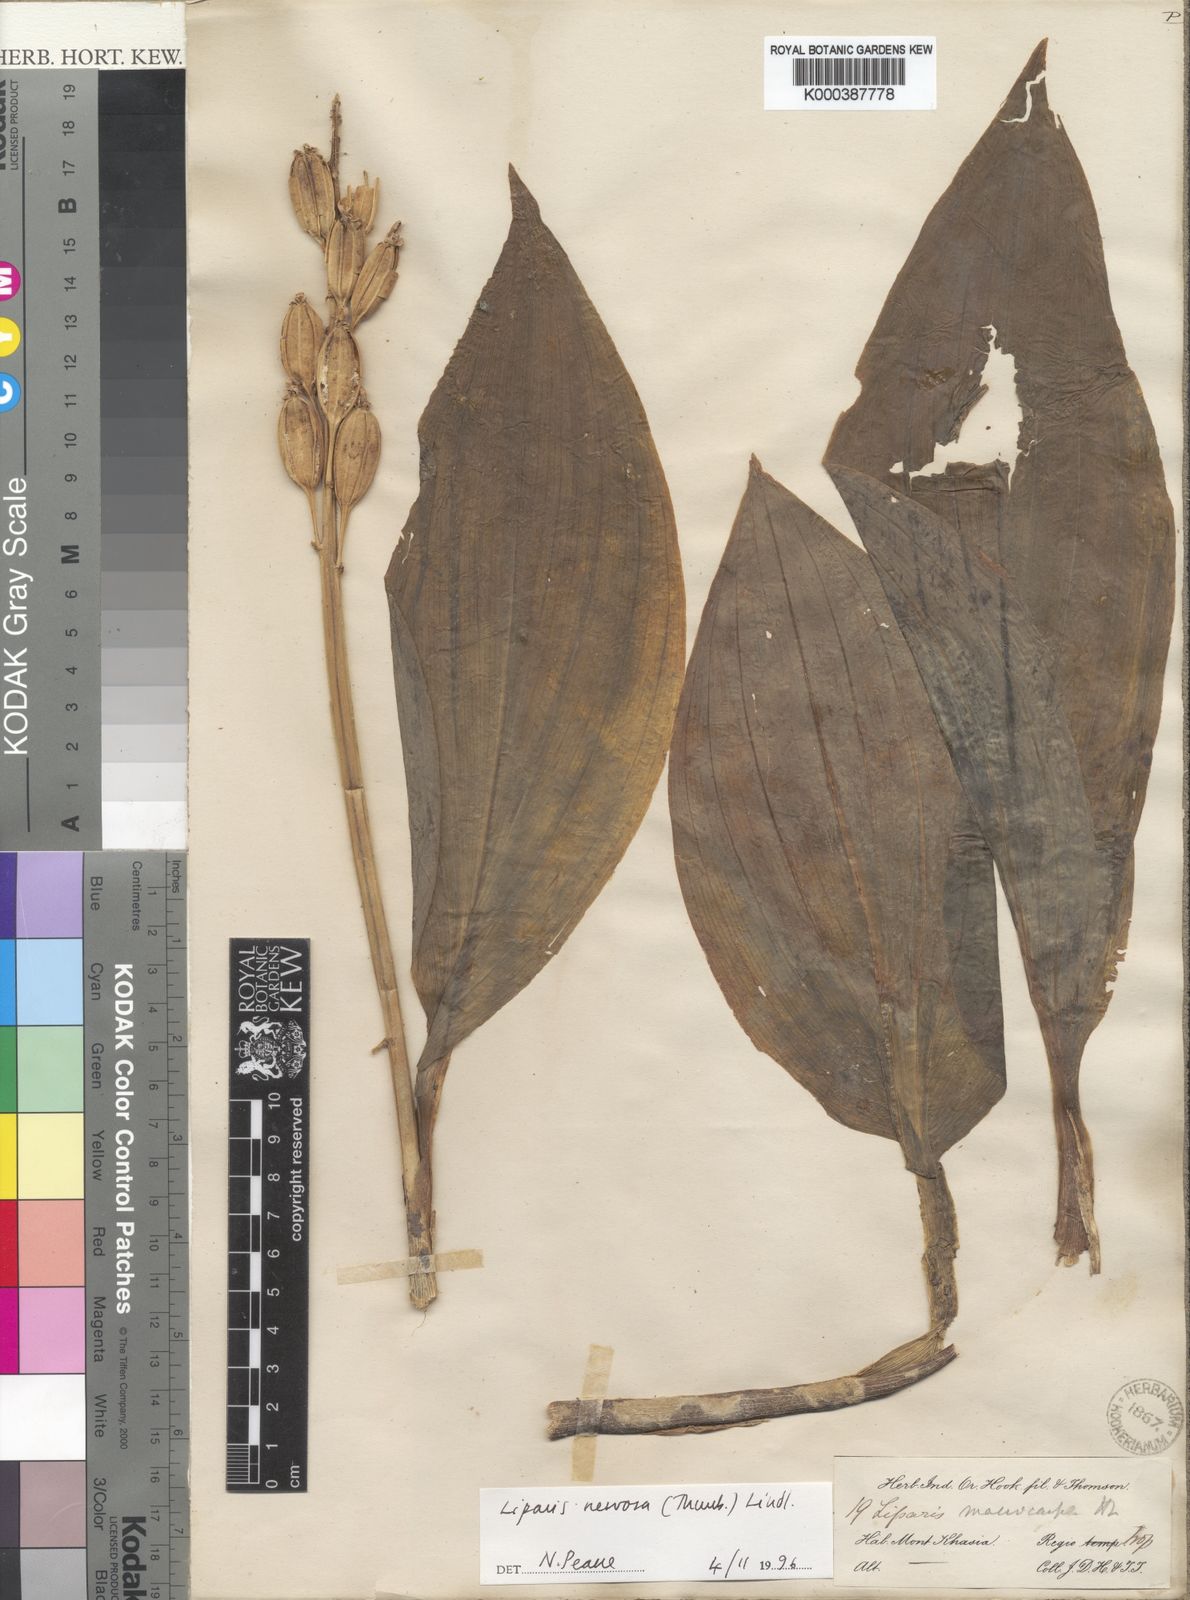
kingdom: Plantae
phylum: Tracheophyta
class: Liliopsida
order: Asparagales
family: Orchidaceae
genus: Liparis
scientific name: Liparis nervosa
